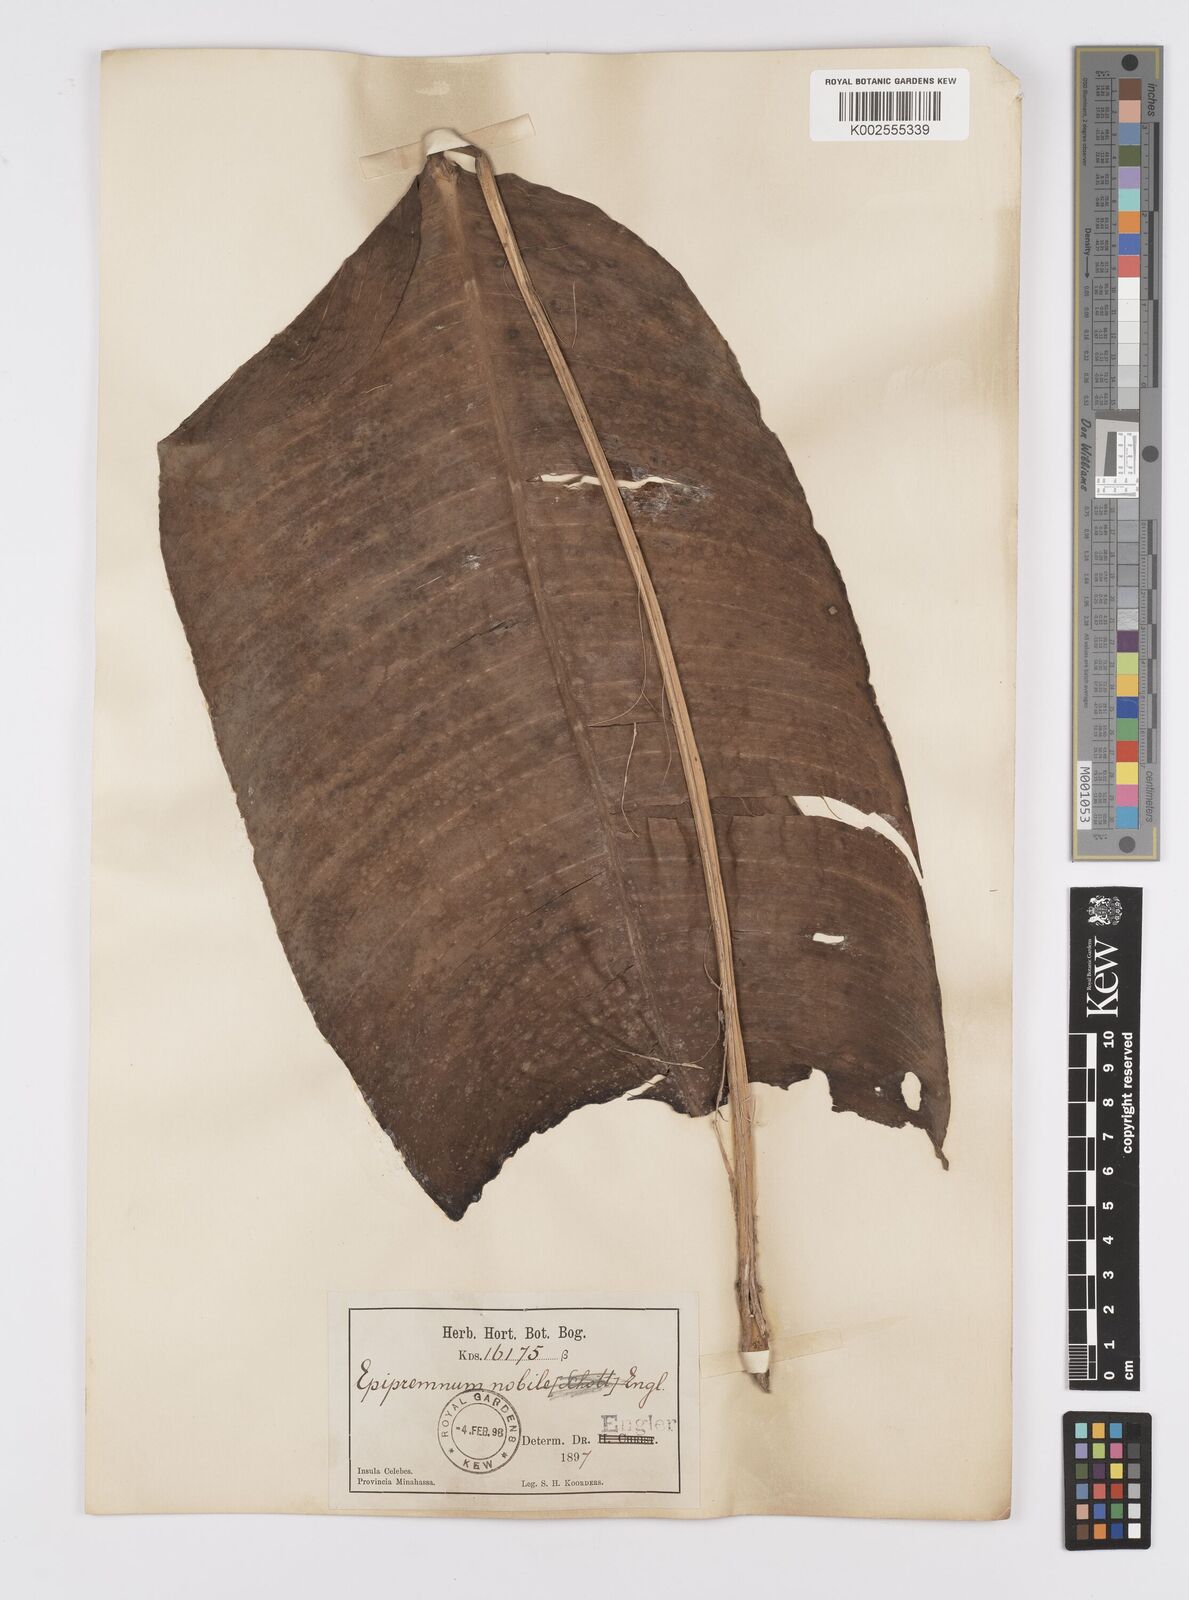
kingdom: Plantae
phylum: Tracheophyta
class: Liliopsida
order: Alismatales
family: Araceae
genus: Epipremnum
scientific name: Epipremnum nobile
